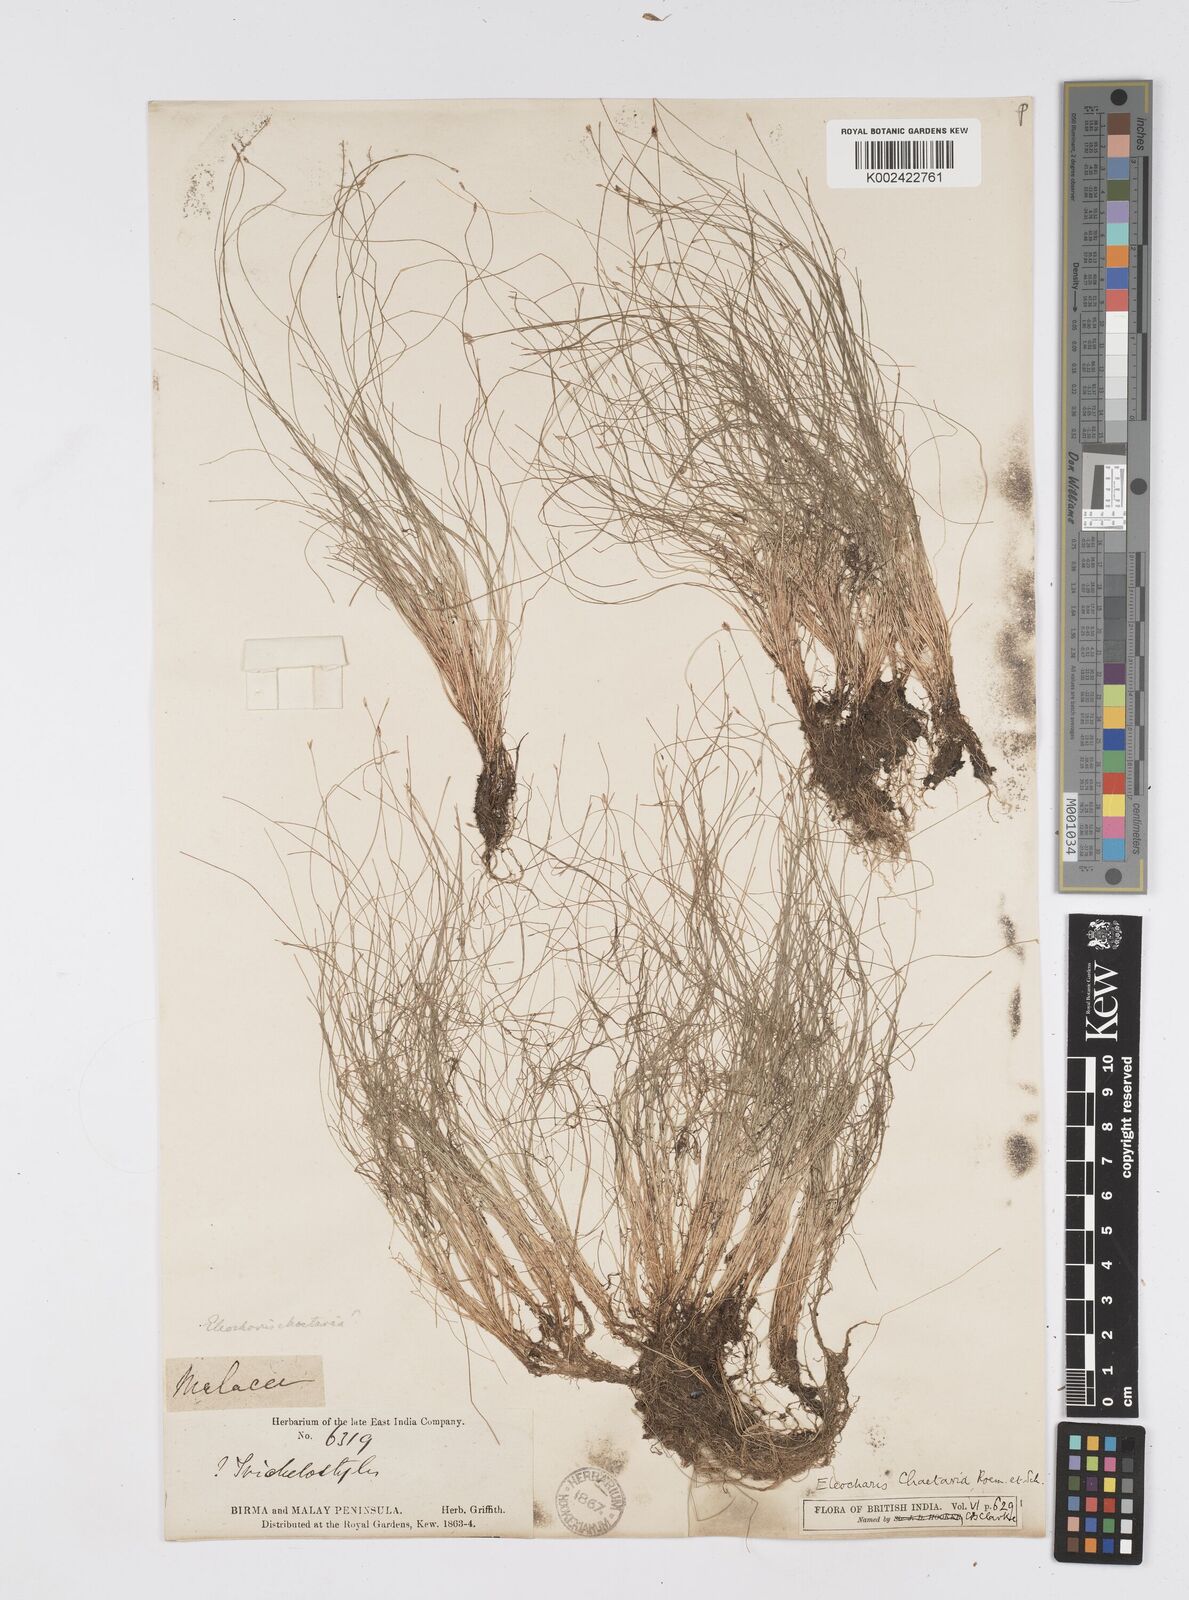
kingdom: Plantae
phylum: Tracheophyta
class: Liliopsida
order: Poales
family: Cyperaceae
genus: Eleocharis
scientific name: Eleocharis retroflexa
